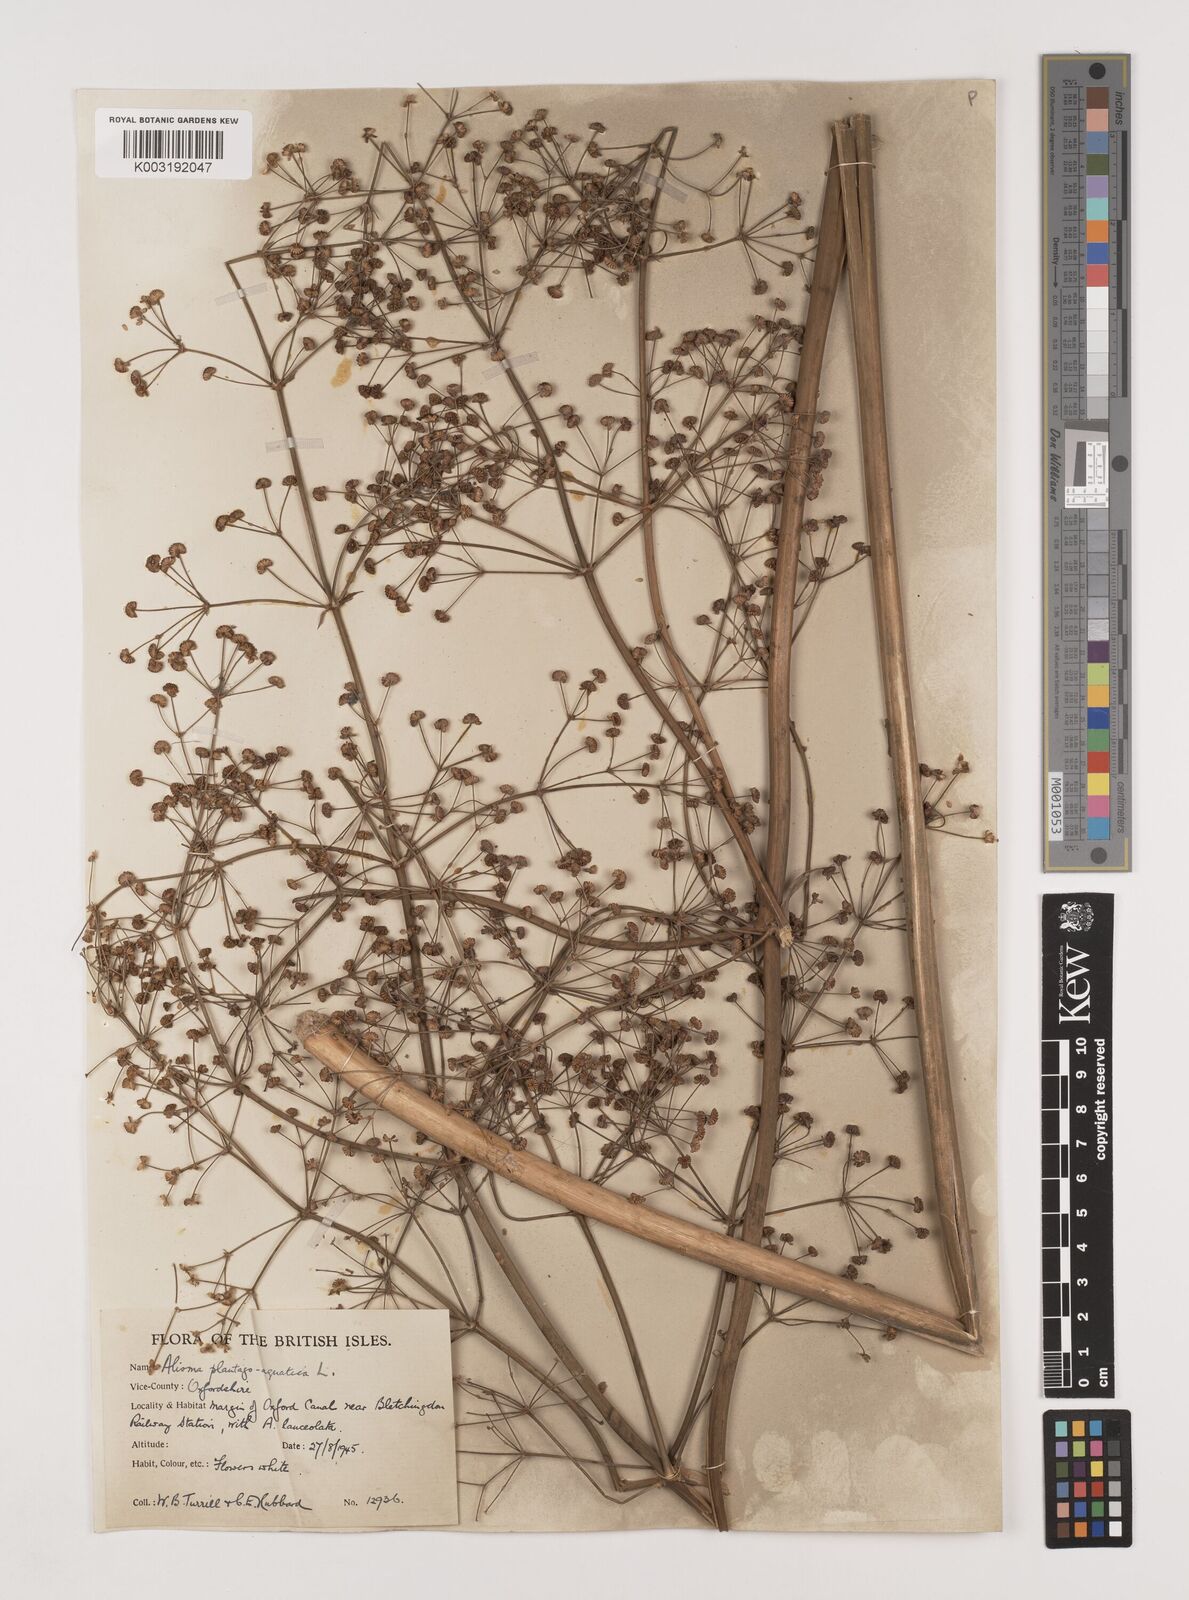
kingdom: Plantae
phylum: Tracheophyta
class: Liliopsida
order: Alismatales
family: Alismataceae
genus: Alisma
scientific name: Alisma plantago-aquatica
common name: Water-plantain
